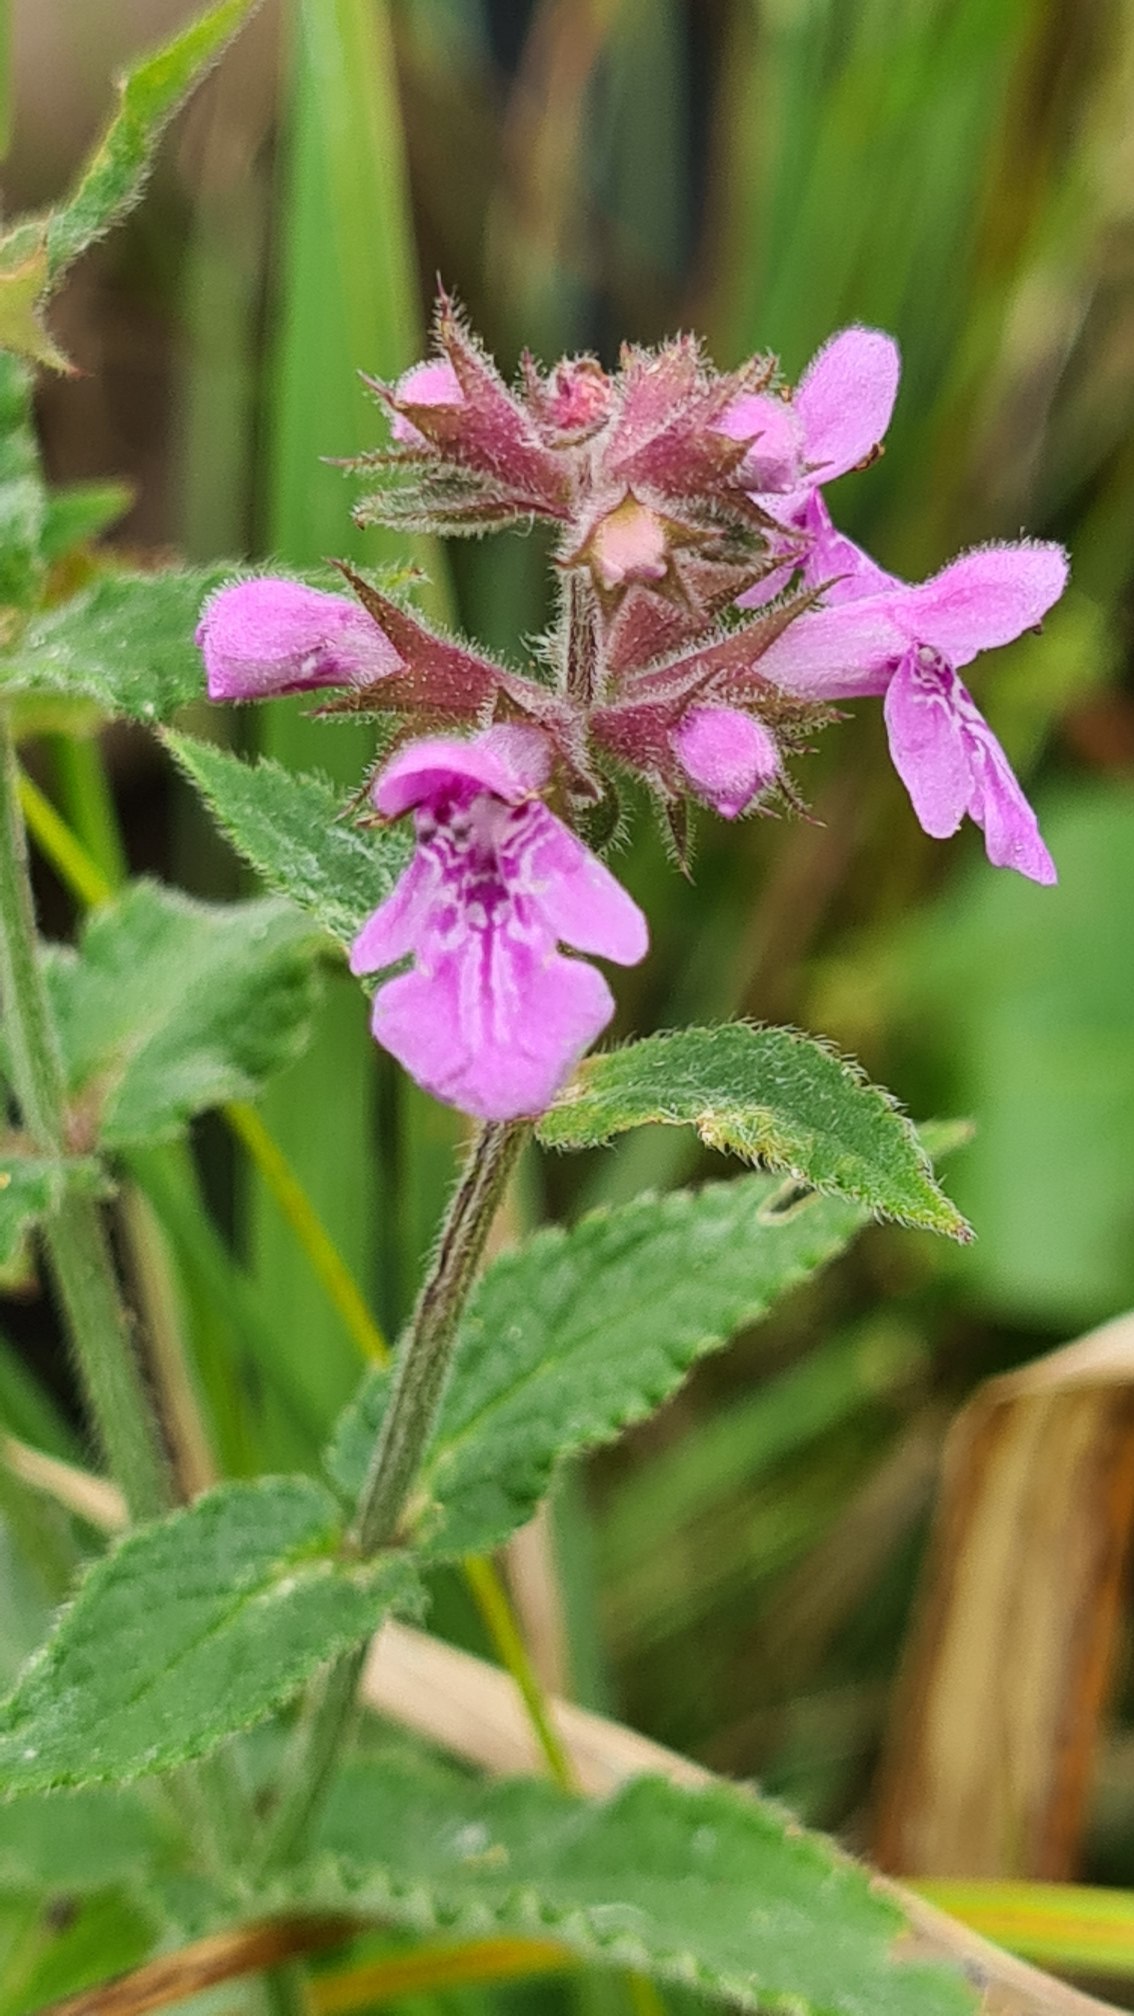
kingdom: Plantae
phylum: Tracheophyta
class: Magnoliopsida
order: Lamiales
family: Lamiaceae
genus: Stachys
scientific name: Stachys palustris
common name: Kær-galtetand
